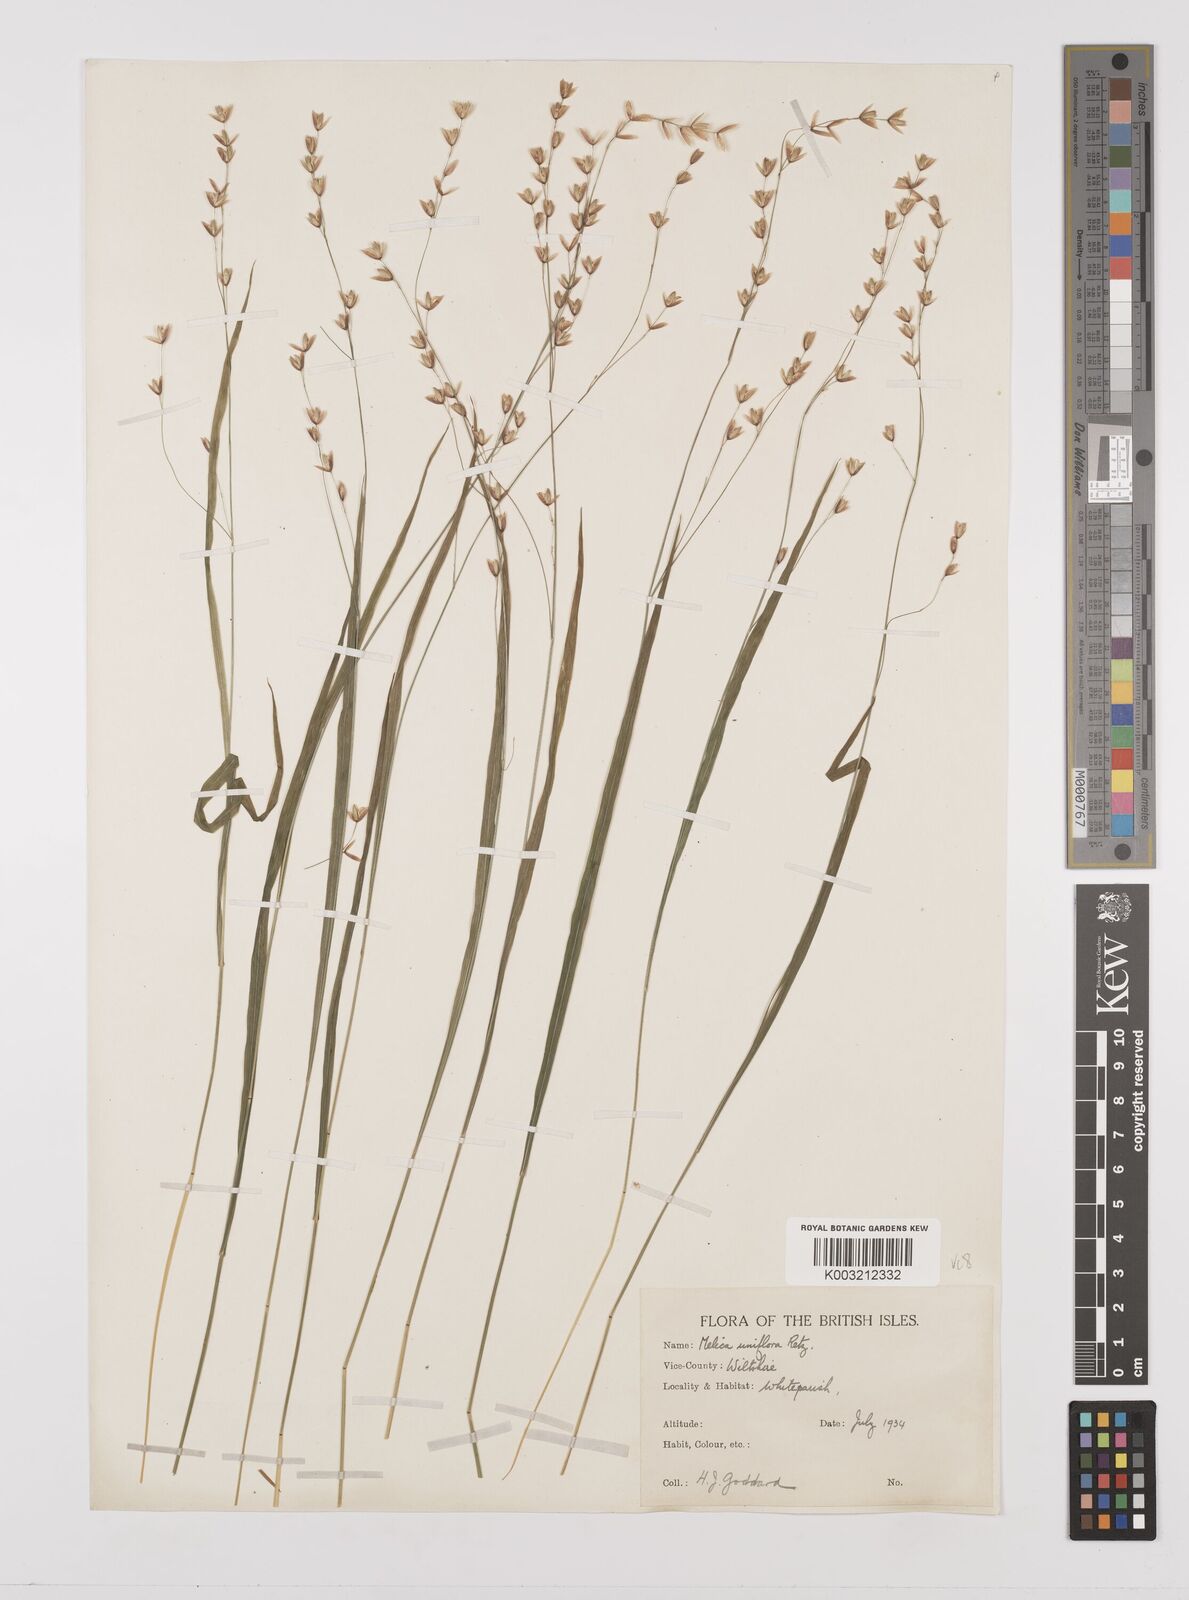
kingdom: Plantae
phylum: Tracheophyta
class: Liliopsida
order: Poales
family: Poaceae
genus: Melica
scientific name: Melica uniflora
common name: Wood melick
